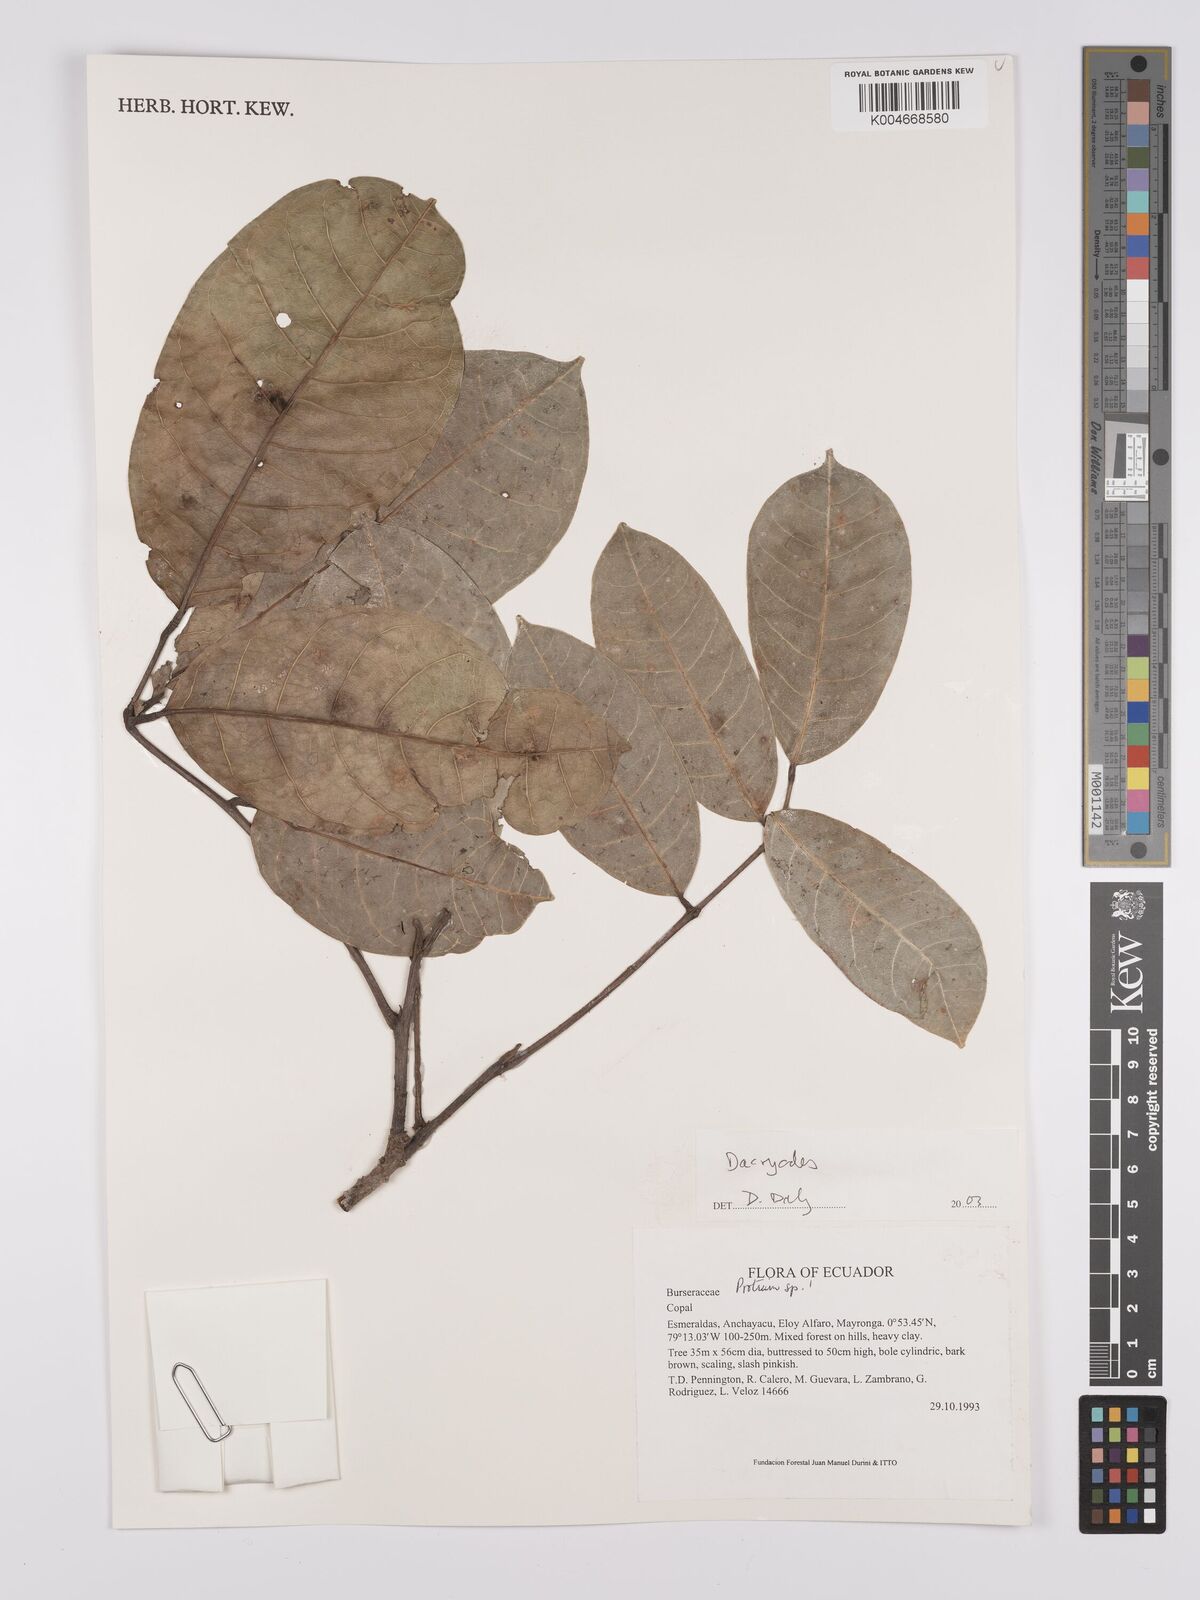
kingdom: Plantae
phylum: Tracheophyta
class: Magnoliopsida
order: Sapindales
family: Burseraceae
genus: Dacryodes
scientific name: Dacryodes
